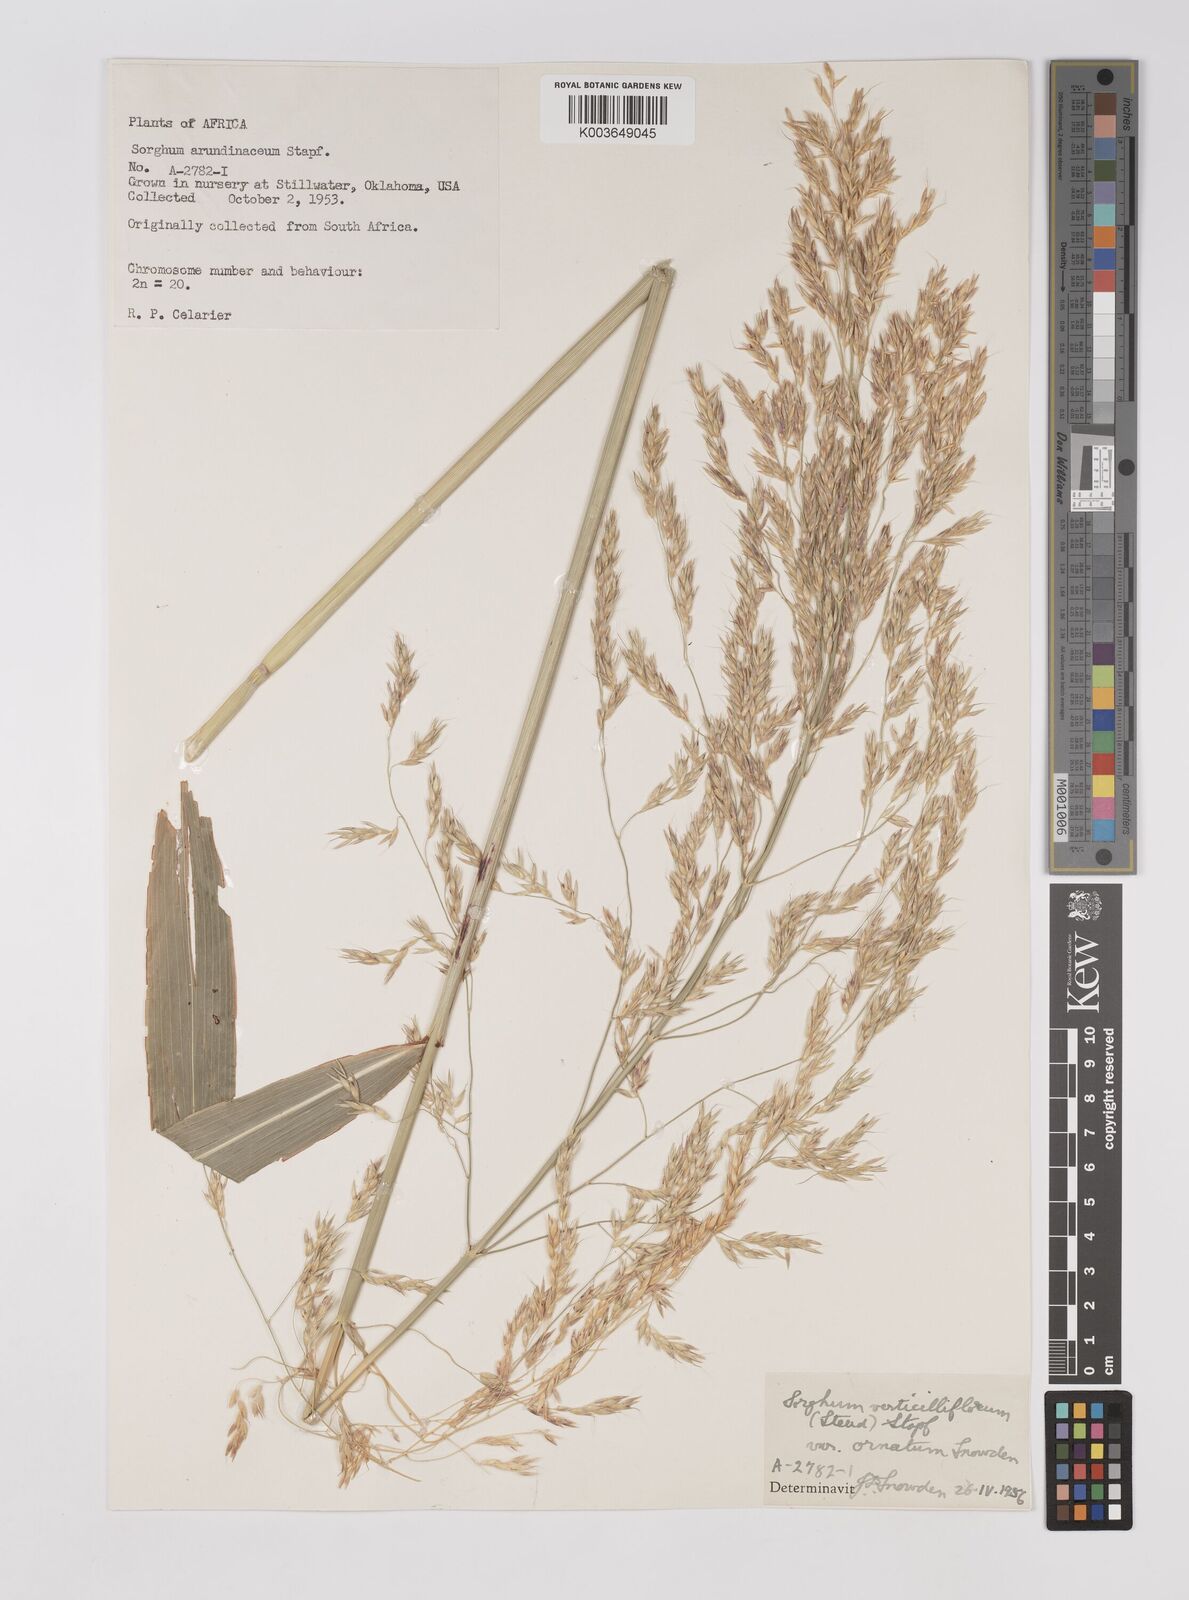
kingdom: Plantae
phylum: Tracheophyta
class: Liliopsida
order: Poales
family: Poaceae
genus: Sorghum
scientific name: Sorghum arundinaceum
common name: Sorghum
